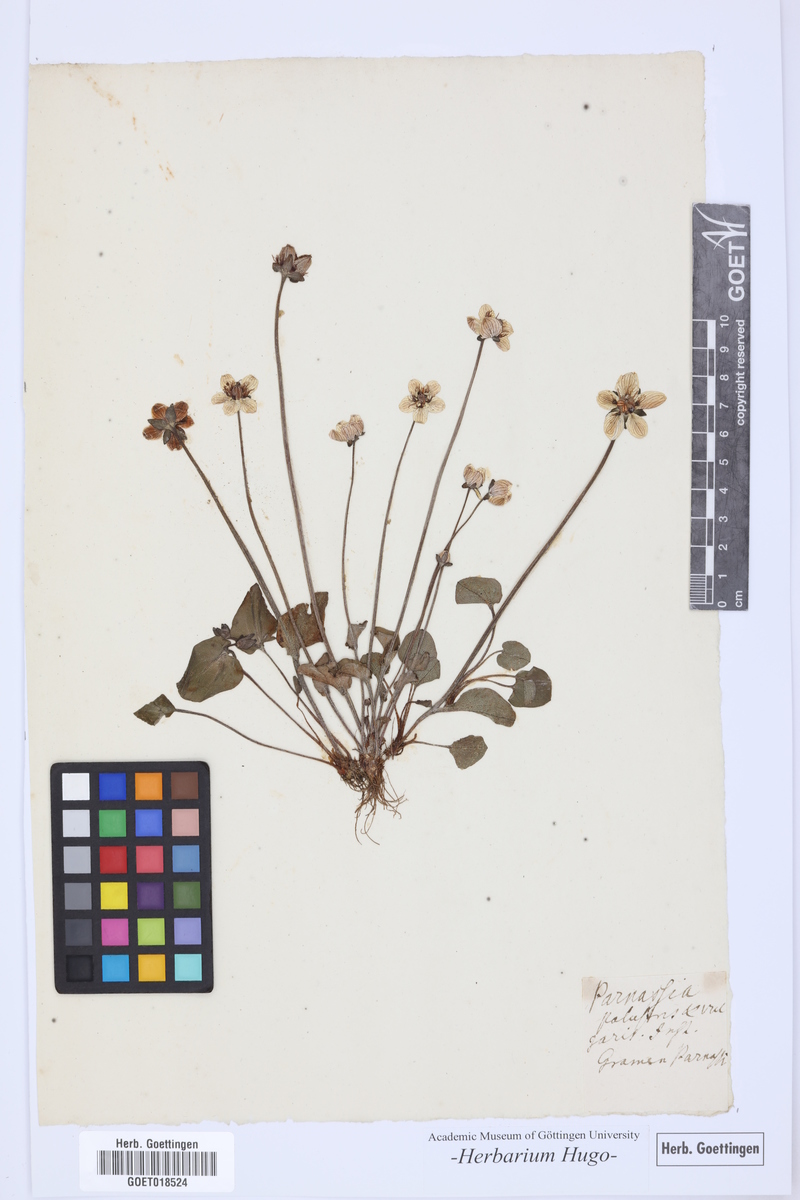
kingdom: Plantae
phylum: Tracheophyta
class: Magnoliopsida
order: Celastrales
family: Parnassiaceae
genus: Parnassia
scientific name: Parnassia palustris
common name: Grass-of-parnassus
